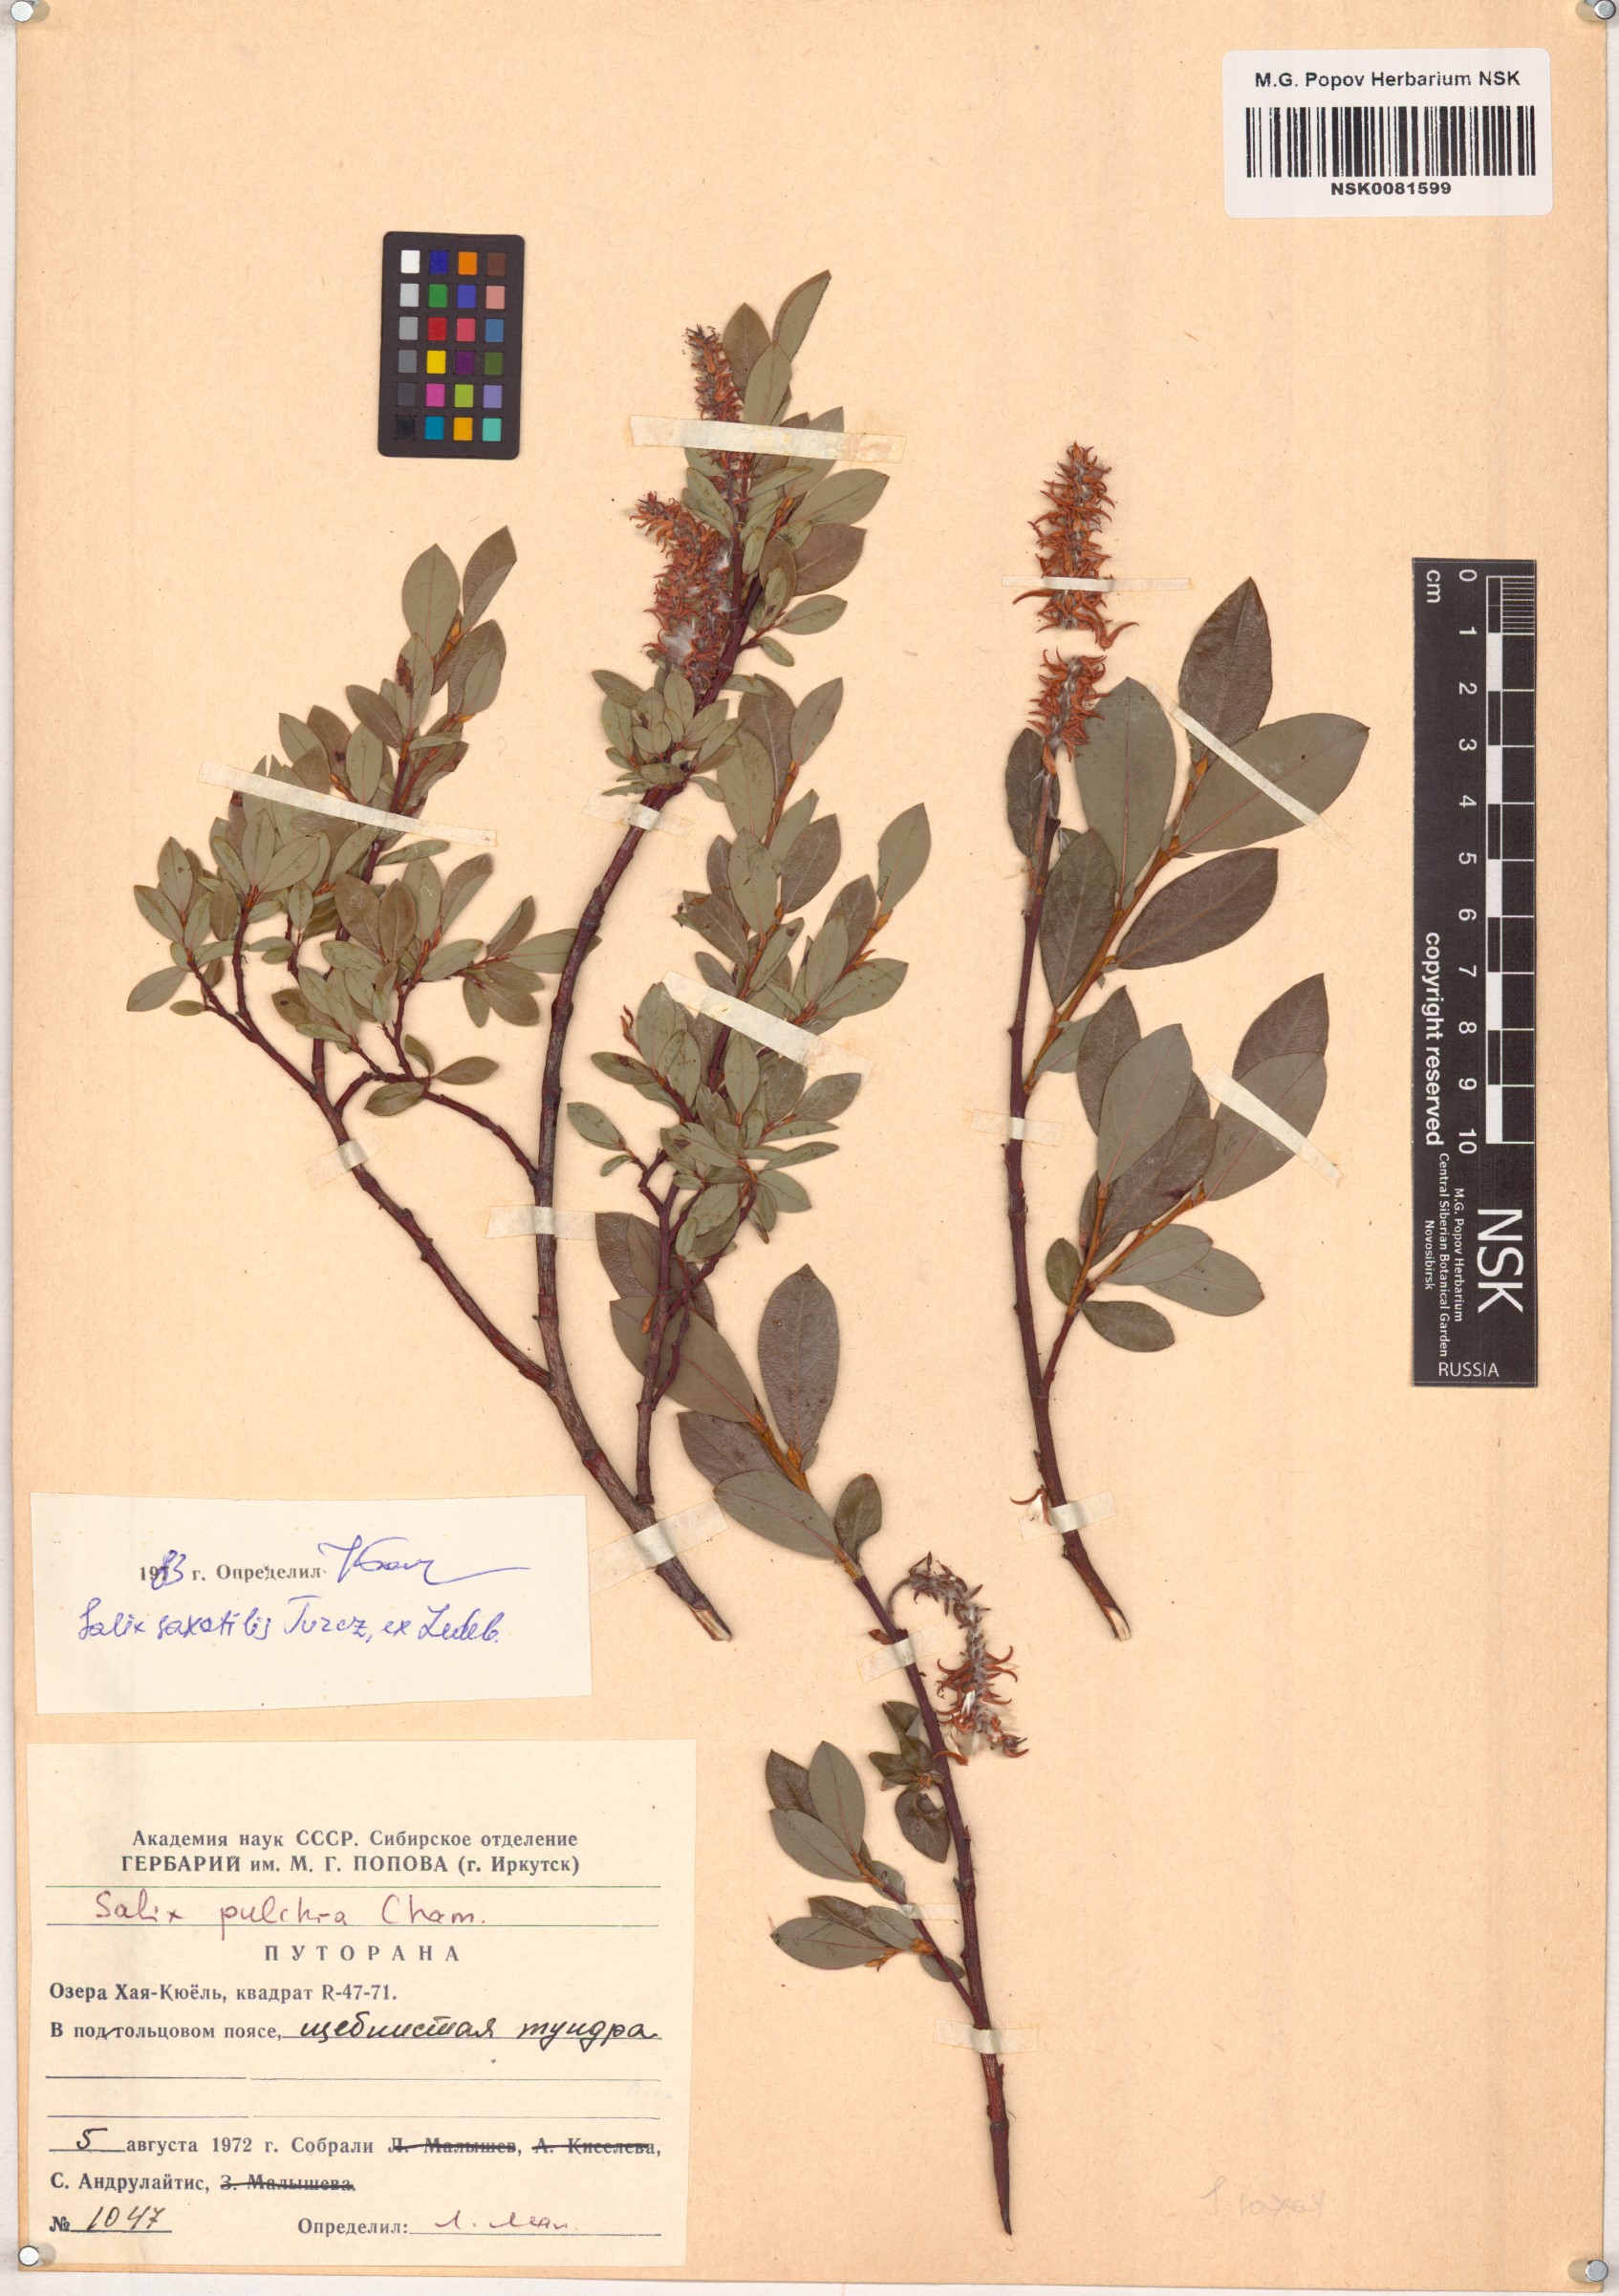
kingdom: Plantae
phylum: Tracheophyta
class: Magnoliopsida
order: Malpighiales
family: Salicaceae
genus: Salix
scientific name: Salix saxatilis
